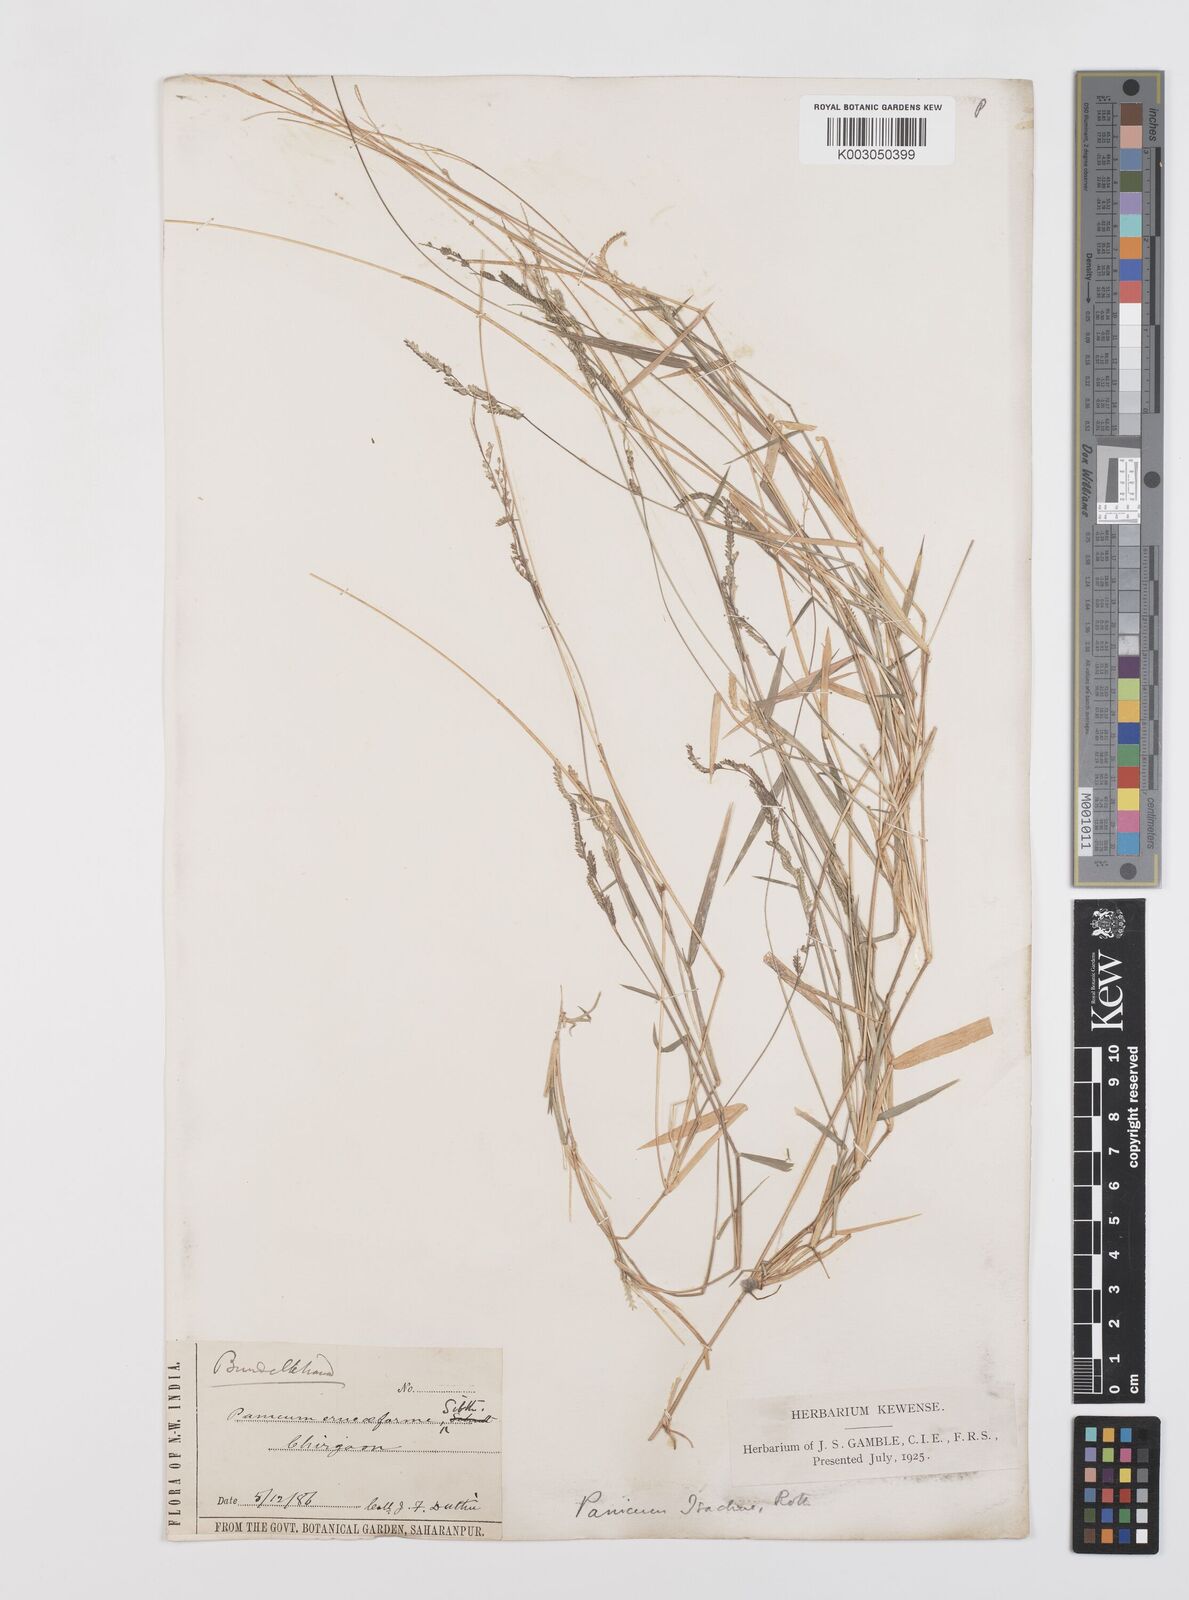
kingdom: Plantae
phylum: Tracheophyta
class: Liliopsida
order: Poales
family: Poaceae
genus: Moorochloa
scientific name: Moorochloa eruciformis
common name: Sweet signalgrass
